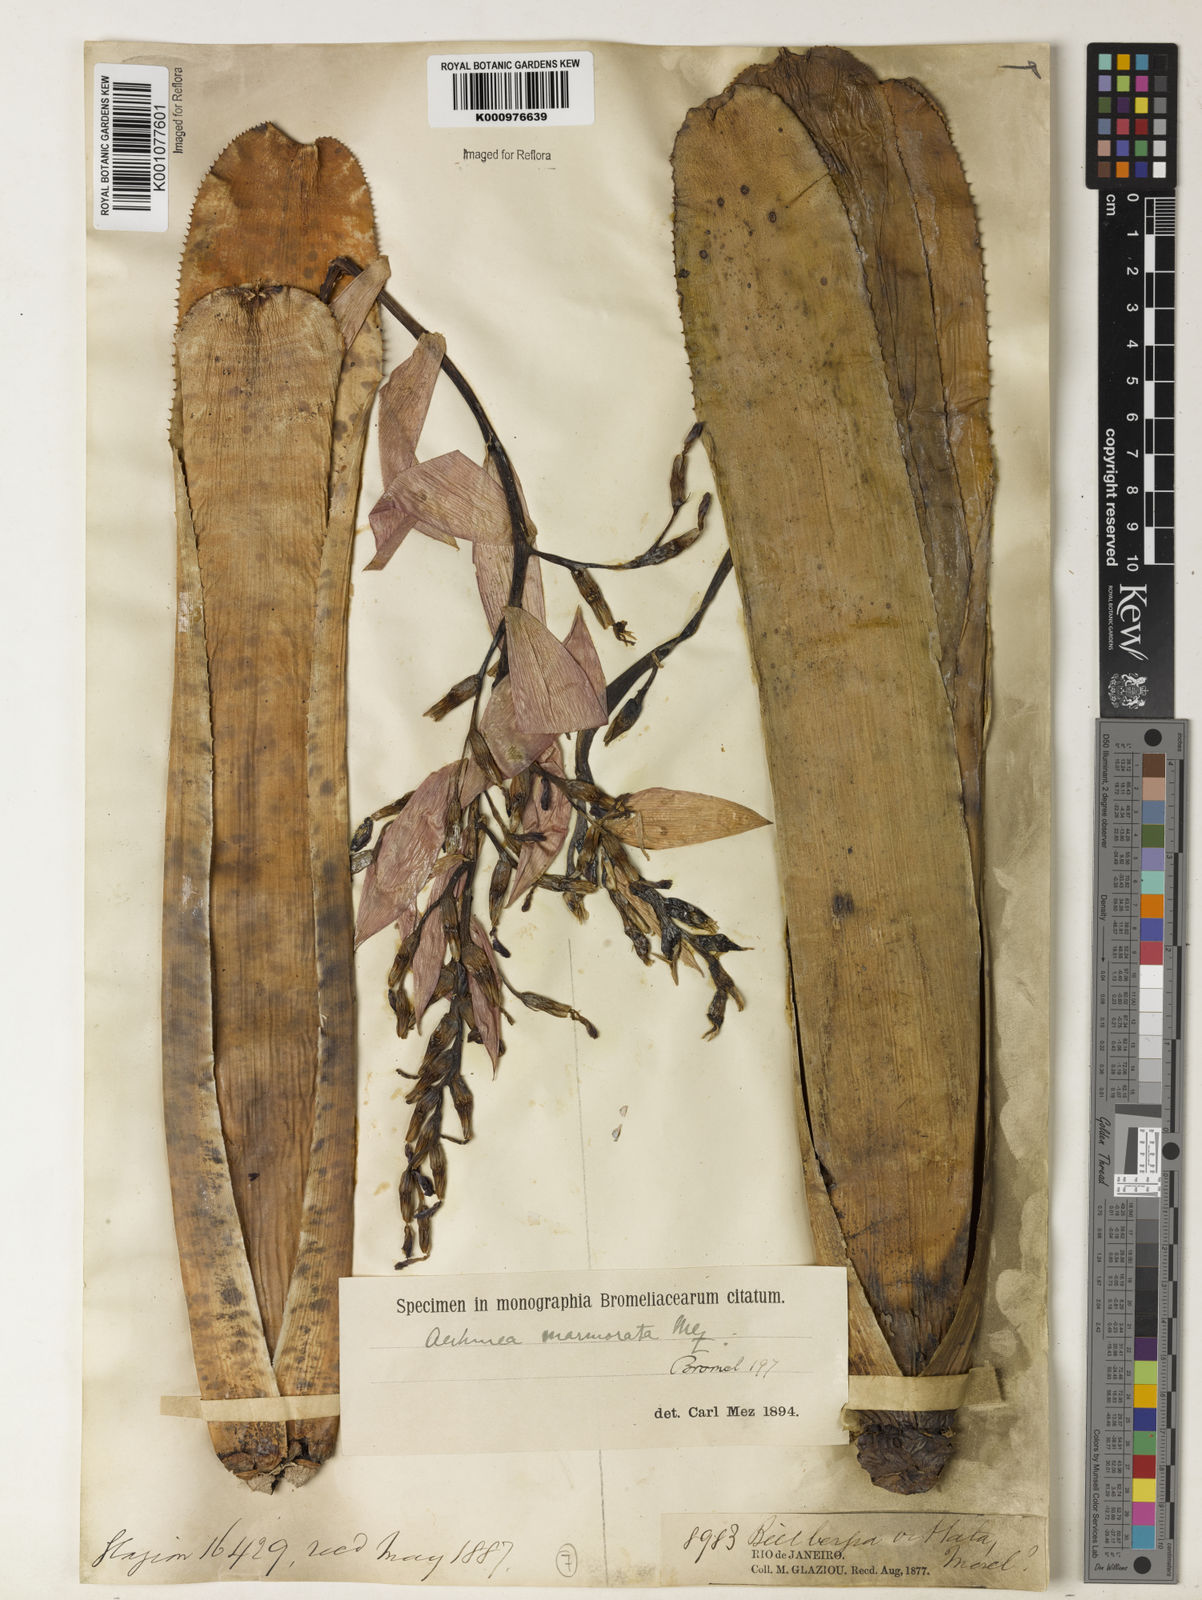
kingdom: Plantae
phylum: Tracheophyta
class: Liliopsida
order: Poales
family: Bromeliaceae
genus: Quesnelia
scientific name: Quesnelia marmorata
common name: Grecian urnplant
